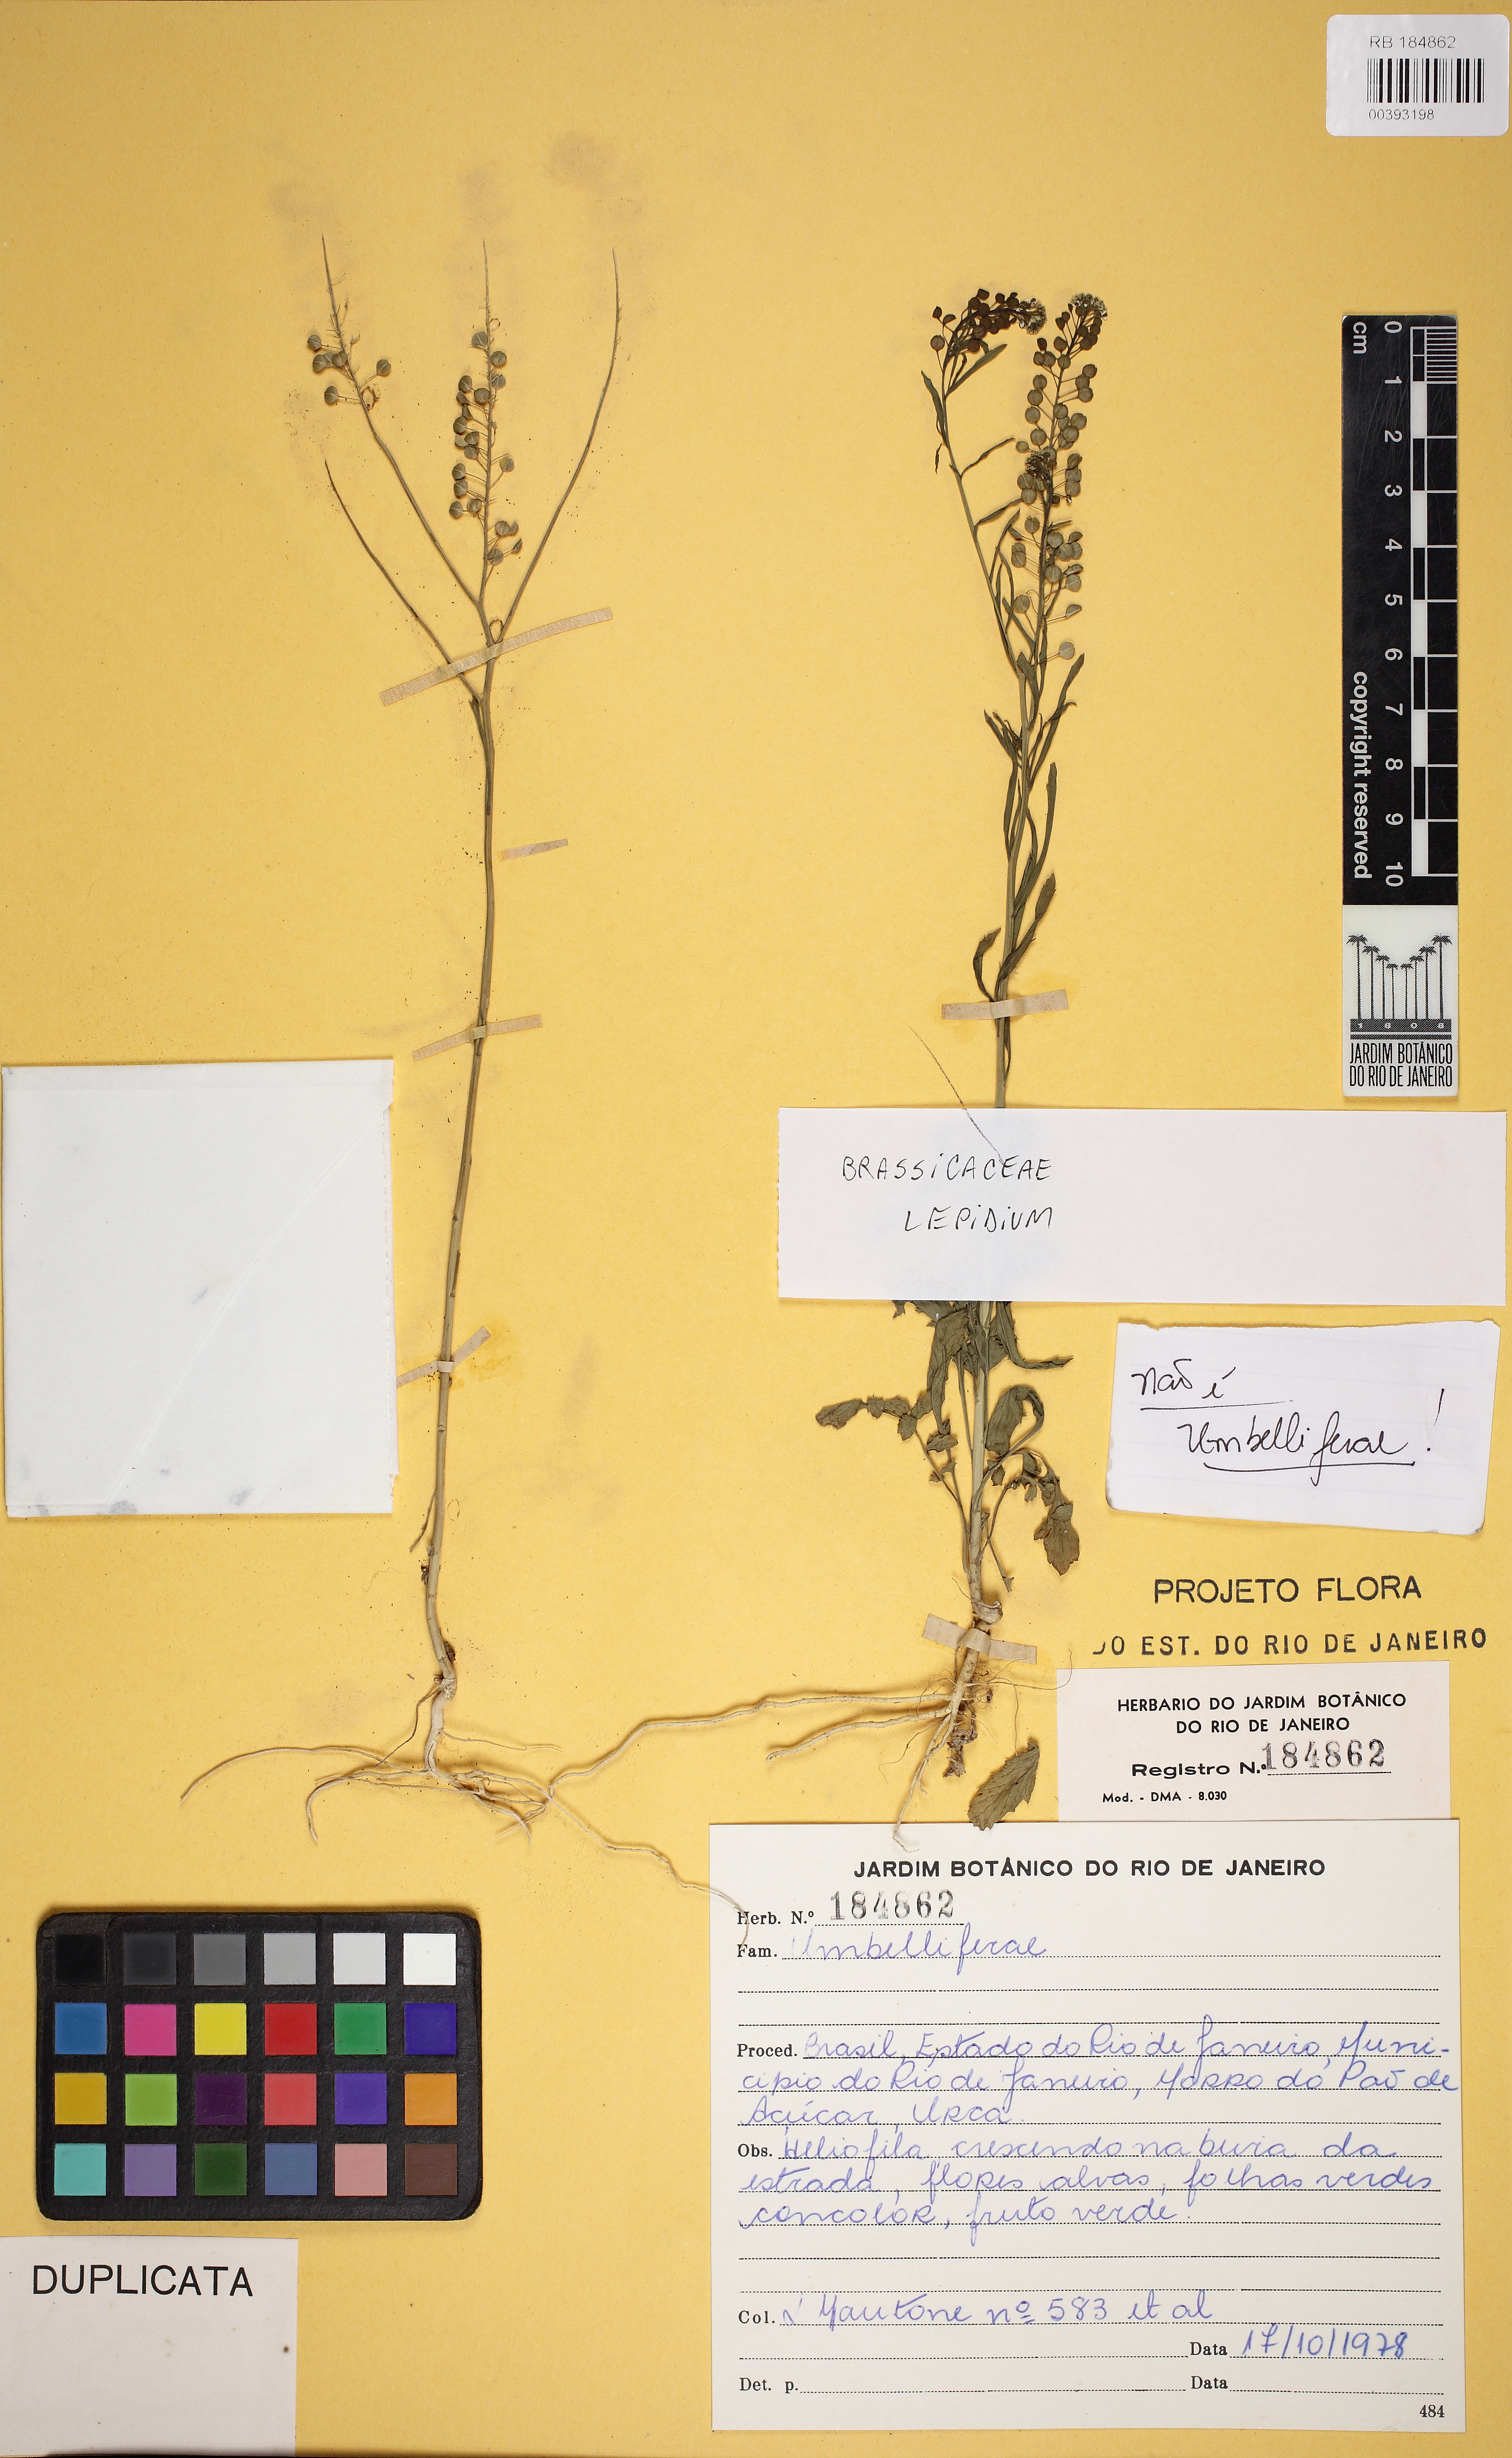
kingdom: Plantae
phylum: Tracheophyta
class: Magnoliopsida
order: Brassicales
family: Brassicaceae
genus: Lepidium
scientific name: Lepidium
